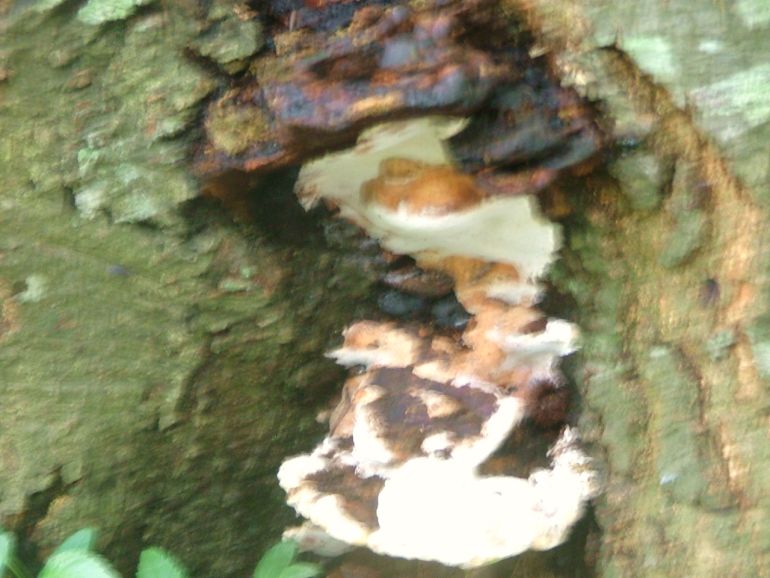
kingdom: Fungi
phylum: Basidiomycota
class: Agaricomycetes
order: Polyporales
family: Polyporaceae
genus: Vanderbylia
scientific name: Vanderbylia fraxinea
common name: stor kanelporesvamp
